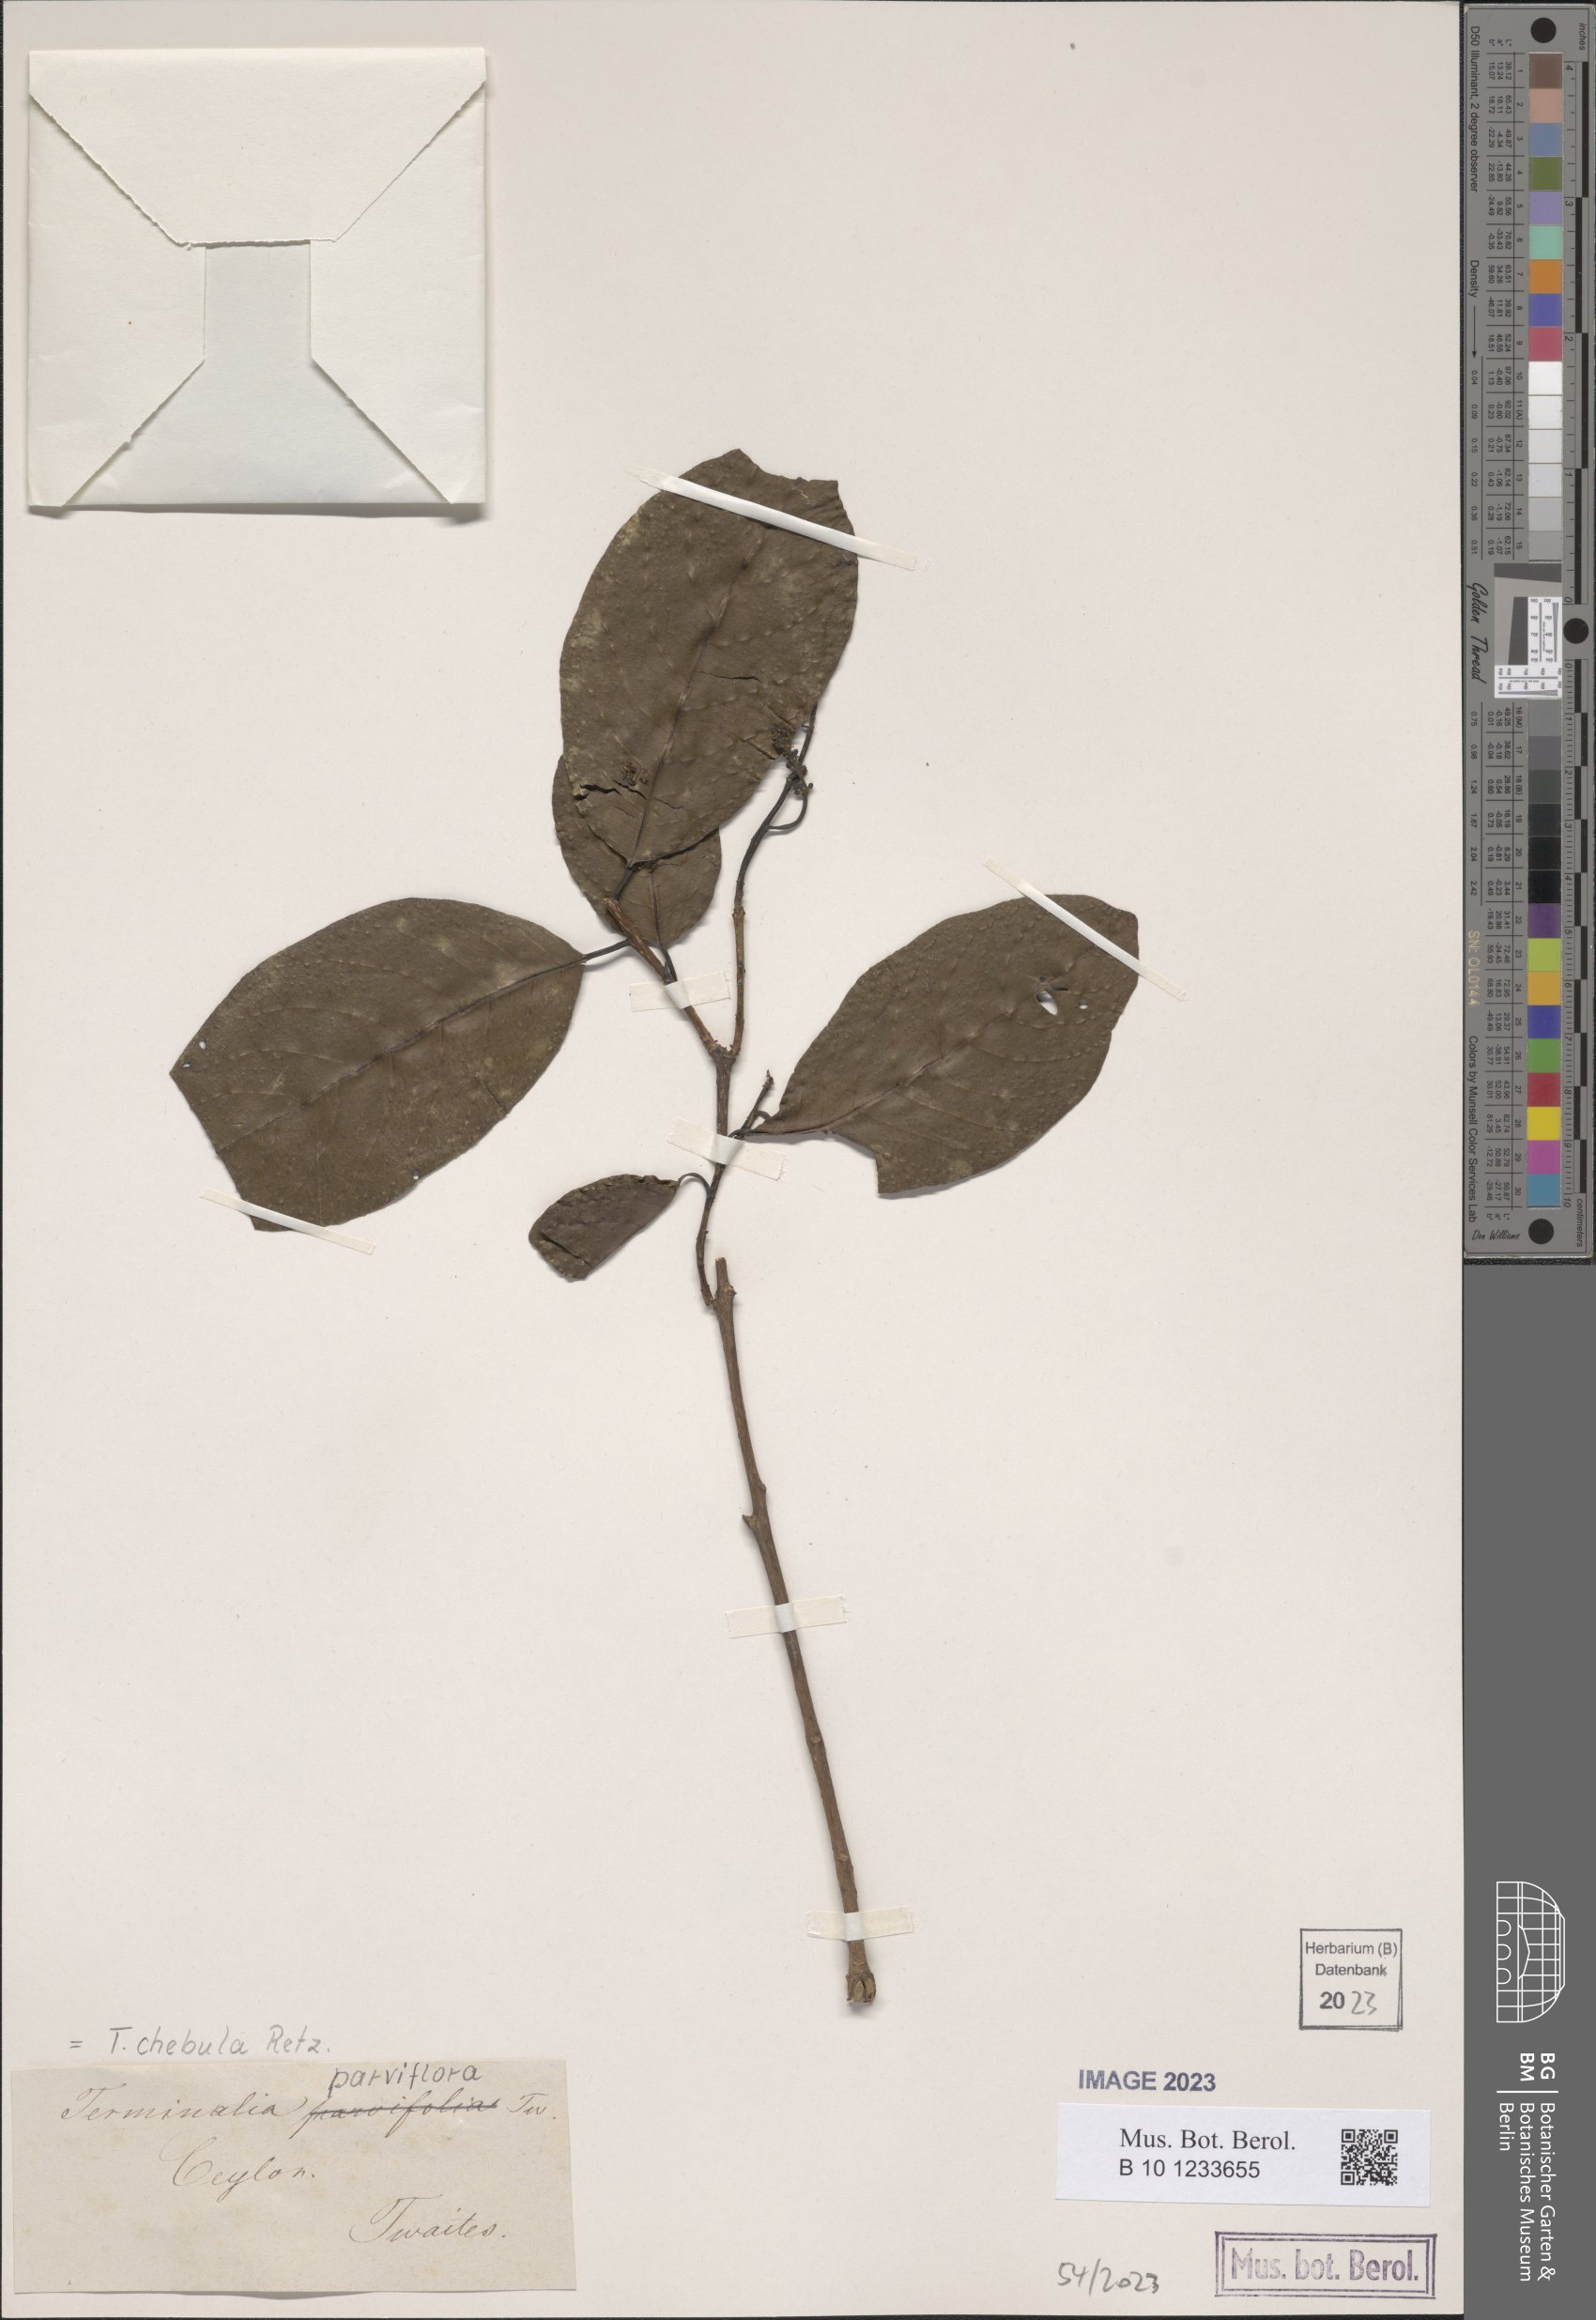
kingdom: Plantae
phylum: Tracheophyta
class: Magnoliopsida
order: Myrtales
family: Combretaceae
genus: Terminalia
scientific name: Terminalia chebula
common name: Myrobalan
